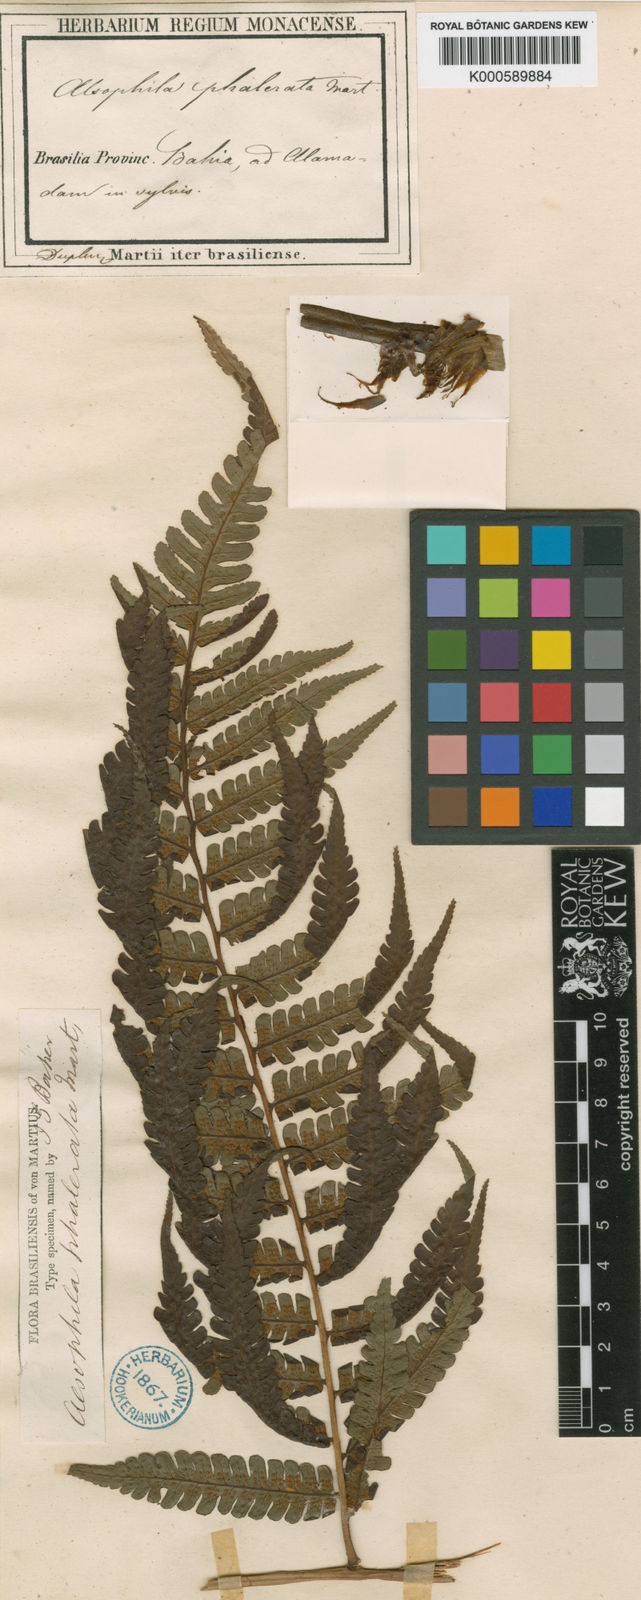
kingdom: Plantae
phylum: Tracheophyta
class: Polypodiopsida
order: Cyatheales
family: Cyatheaceae
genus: Cyathea
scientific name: Cyathea phalerata
